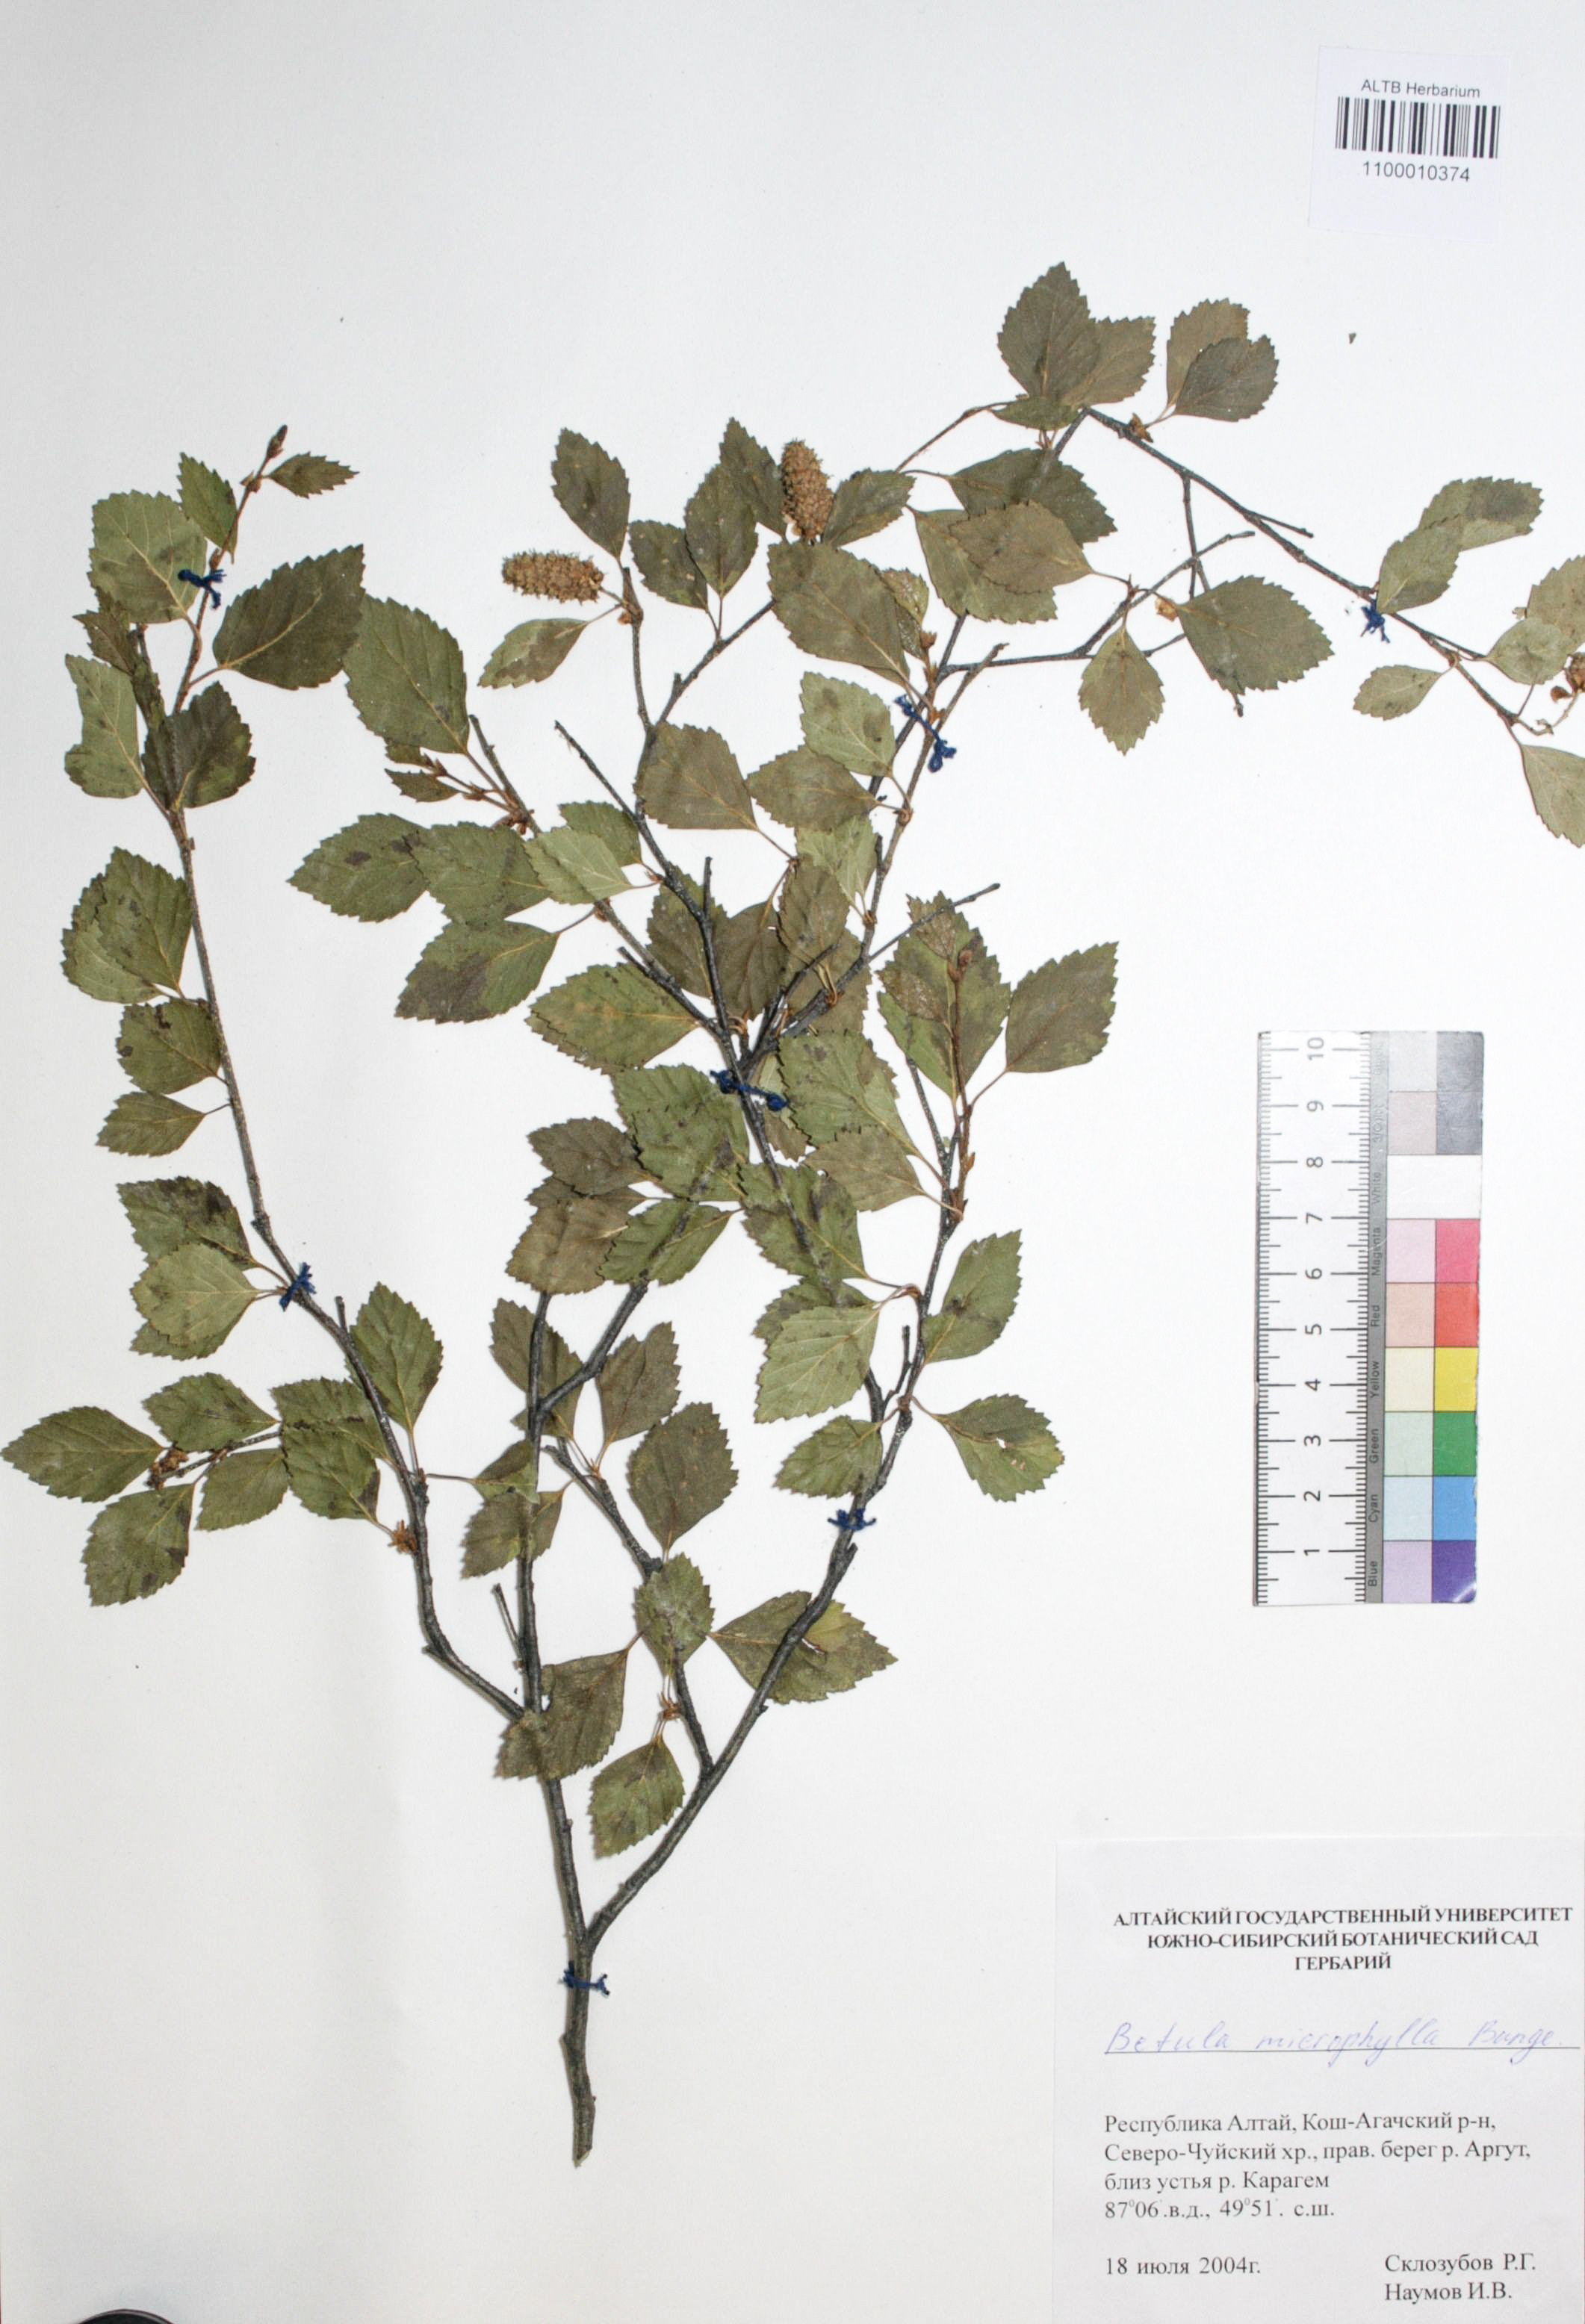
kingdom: Plantae
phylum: Tracheophyta
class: Magnoliopsida
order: Fagales
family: Betulaceae
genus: Betula
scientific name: Betula microphylla
